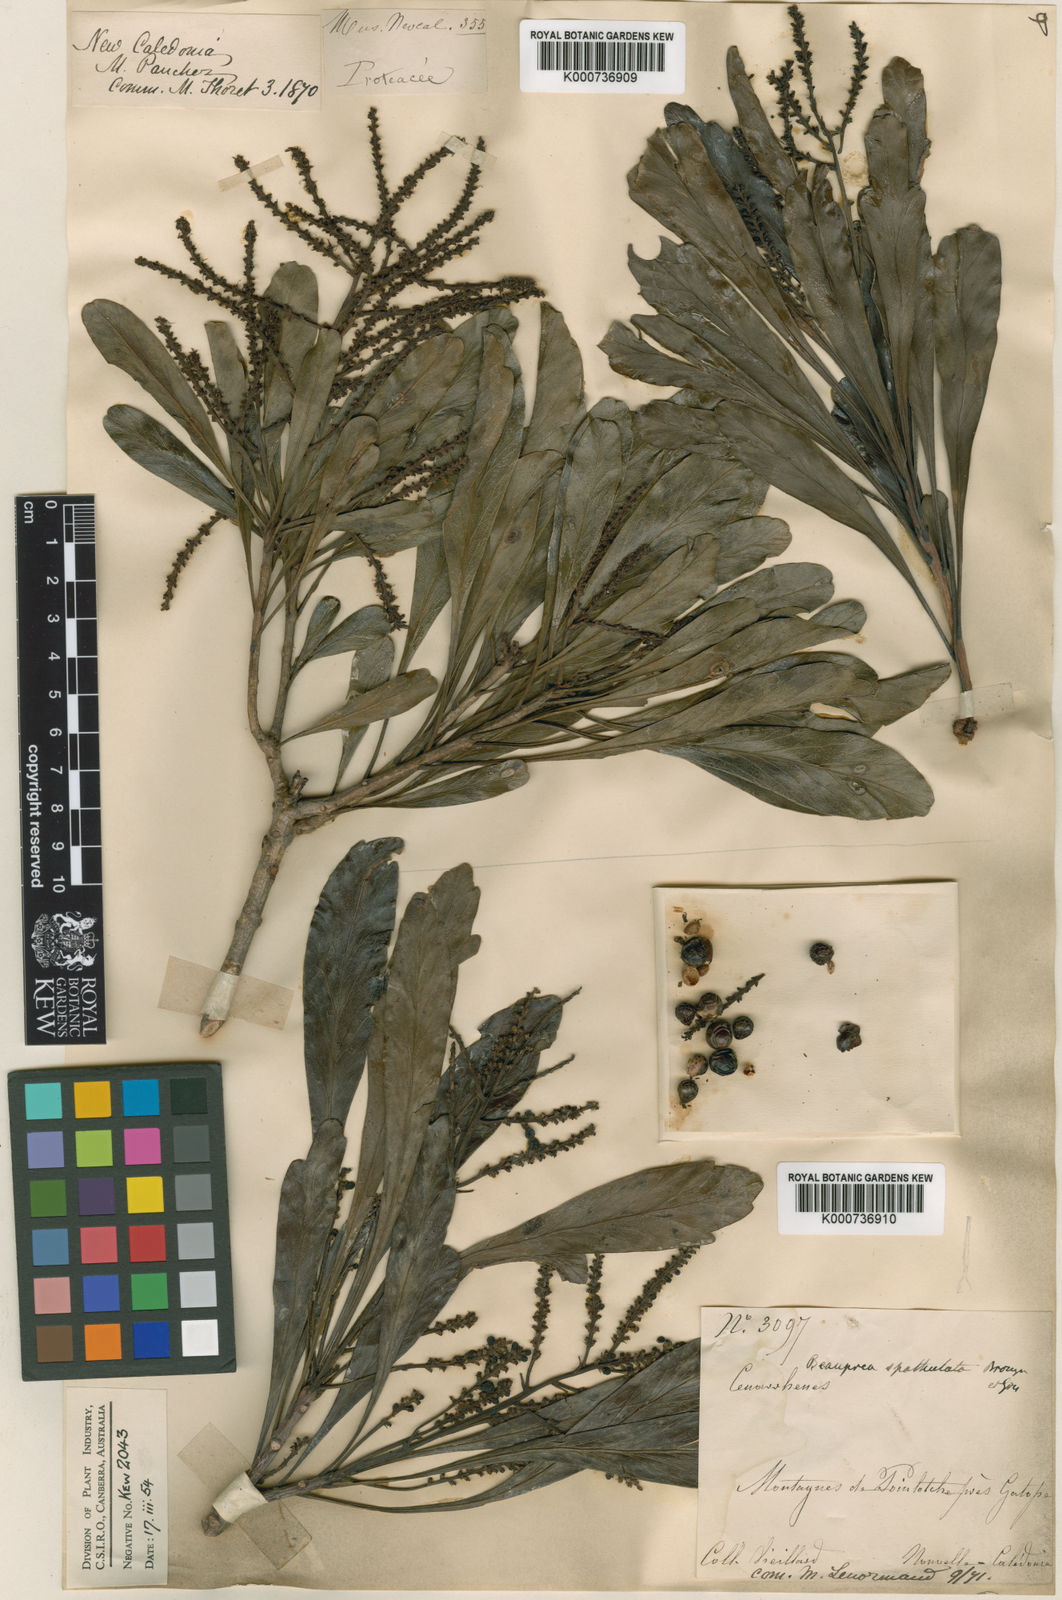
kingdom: Plantae
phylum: Tracheophyta
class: Magnoliopsida
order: Proteales
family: Proteaceae
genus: Beauprea
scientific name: Beauprea spathulifolia
